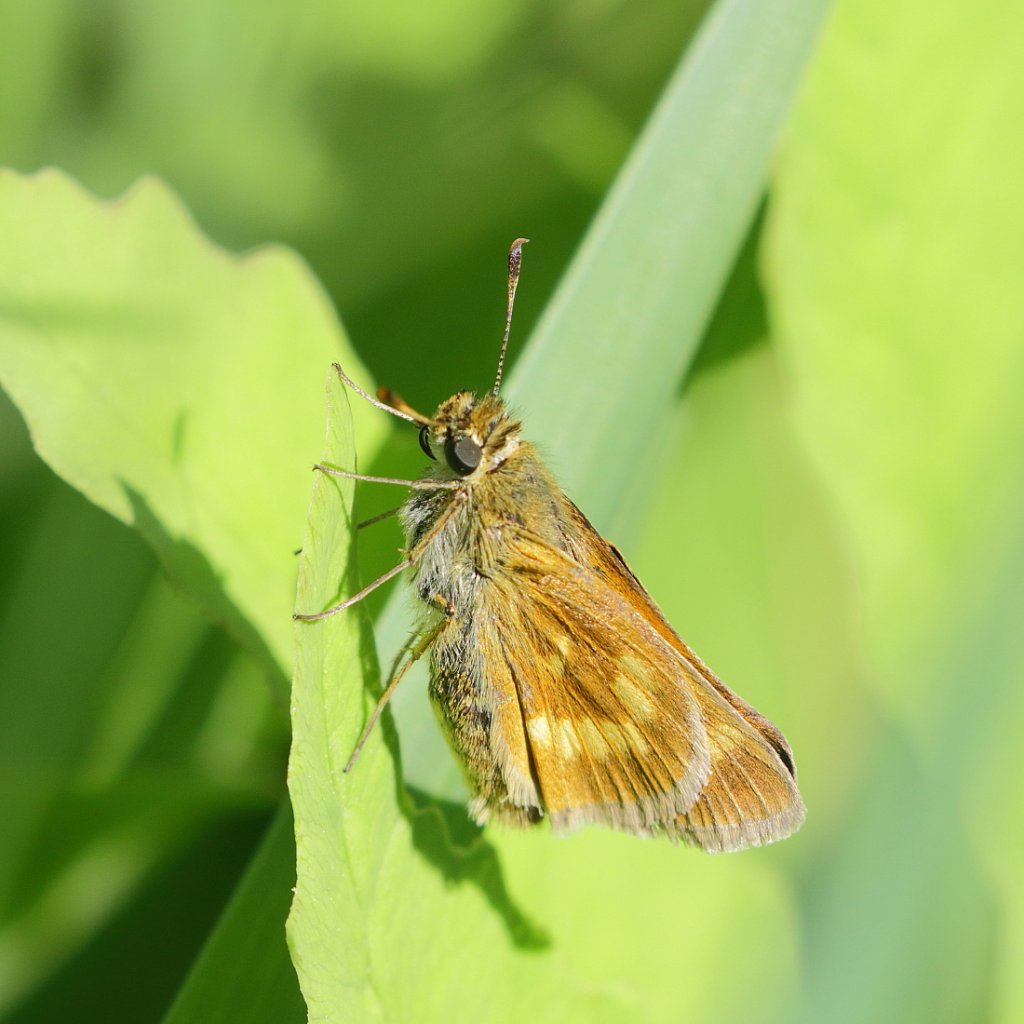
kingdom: Animalia
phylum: Arthropoda
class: Insecta
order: Lepidoptera
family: Hesperiidae
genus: Polites
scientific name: Polites
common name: Long Dash Skipper
